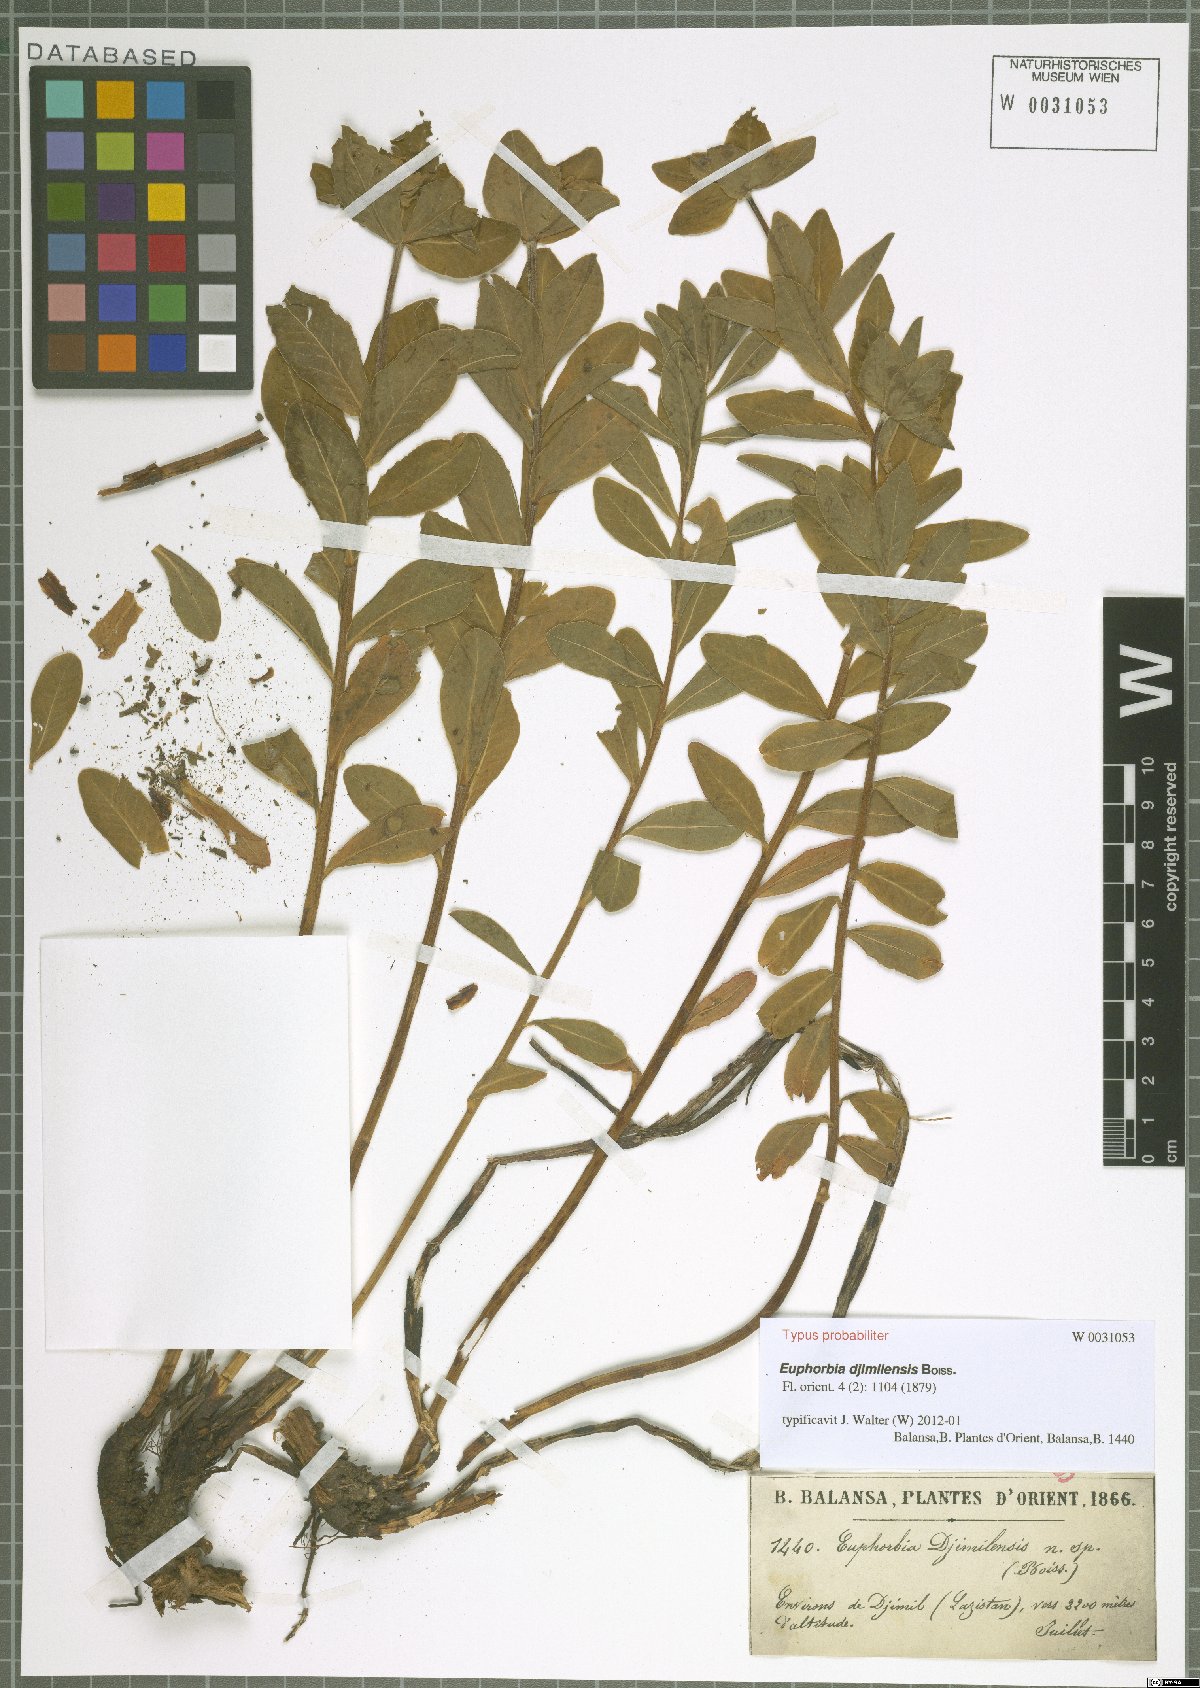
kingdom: Plantae
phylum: Tracheophyta
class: Magnoliopsida
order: Malpighiales
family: Euphorbiaceae
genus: Euphorbia
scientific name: Euphorbia djimilensis
